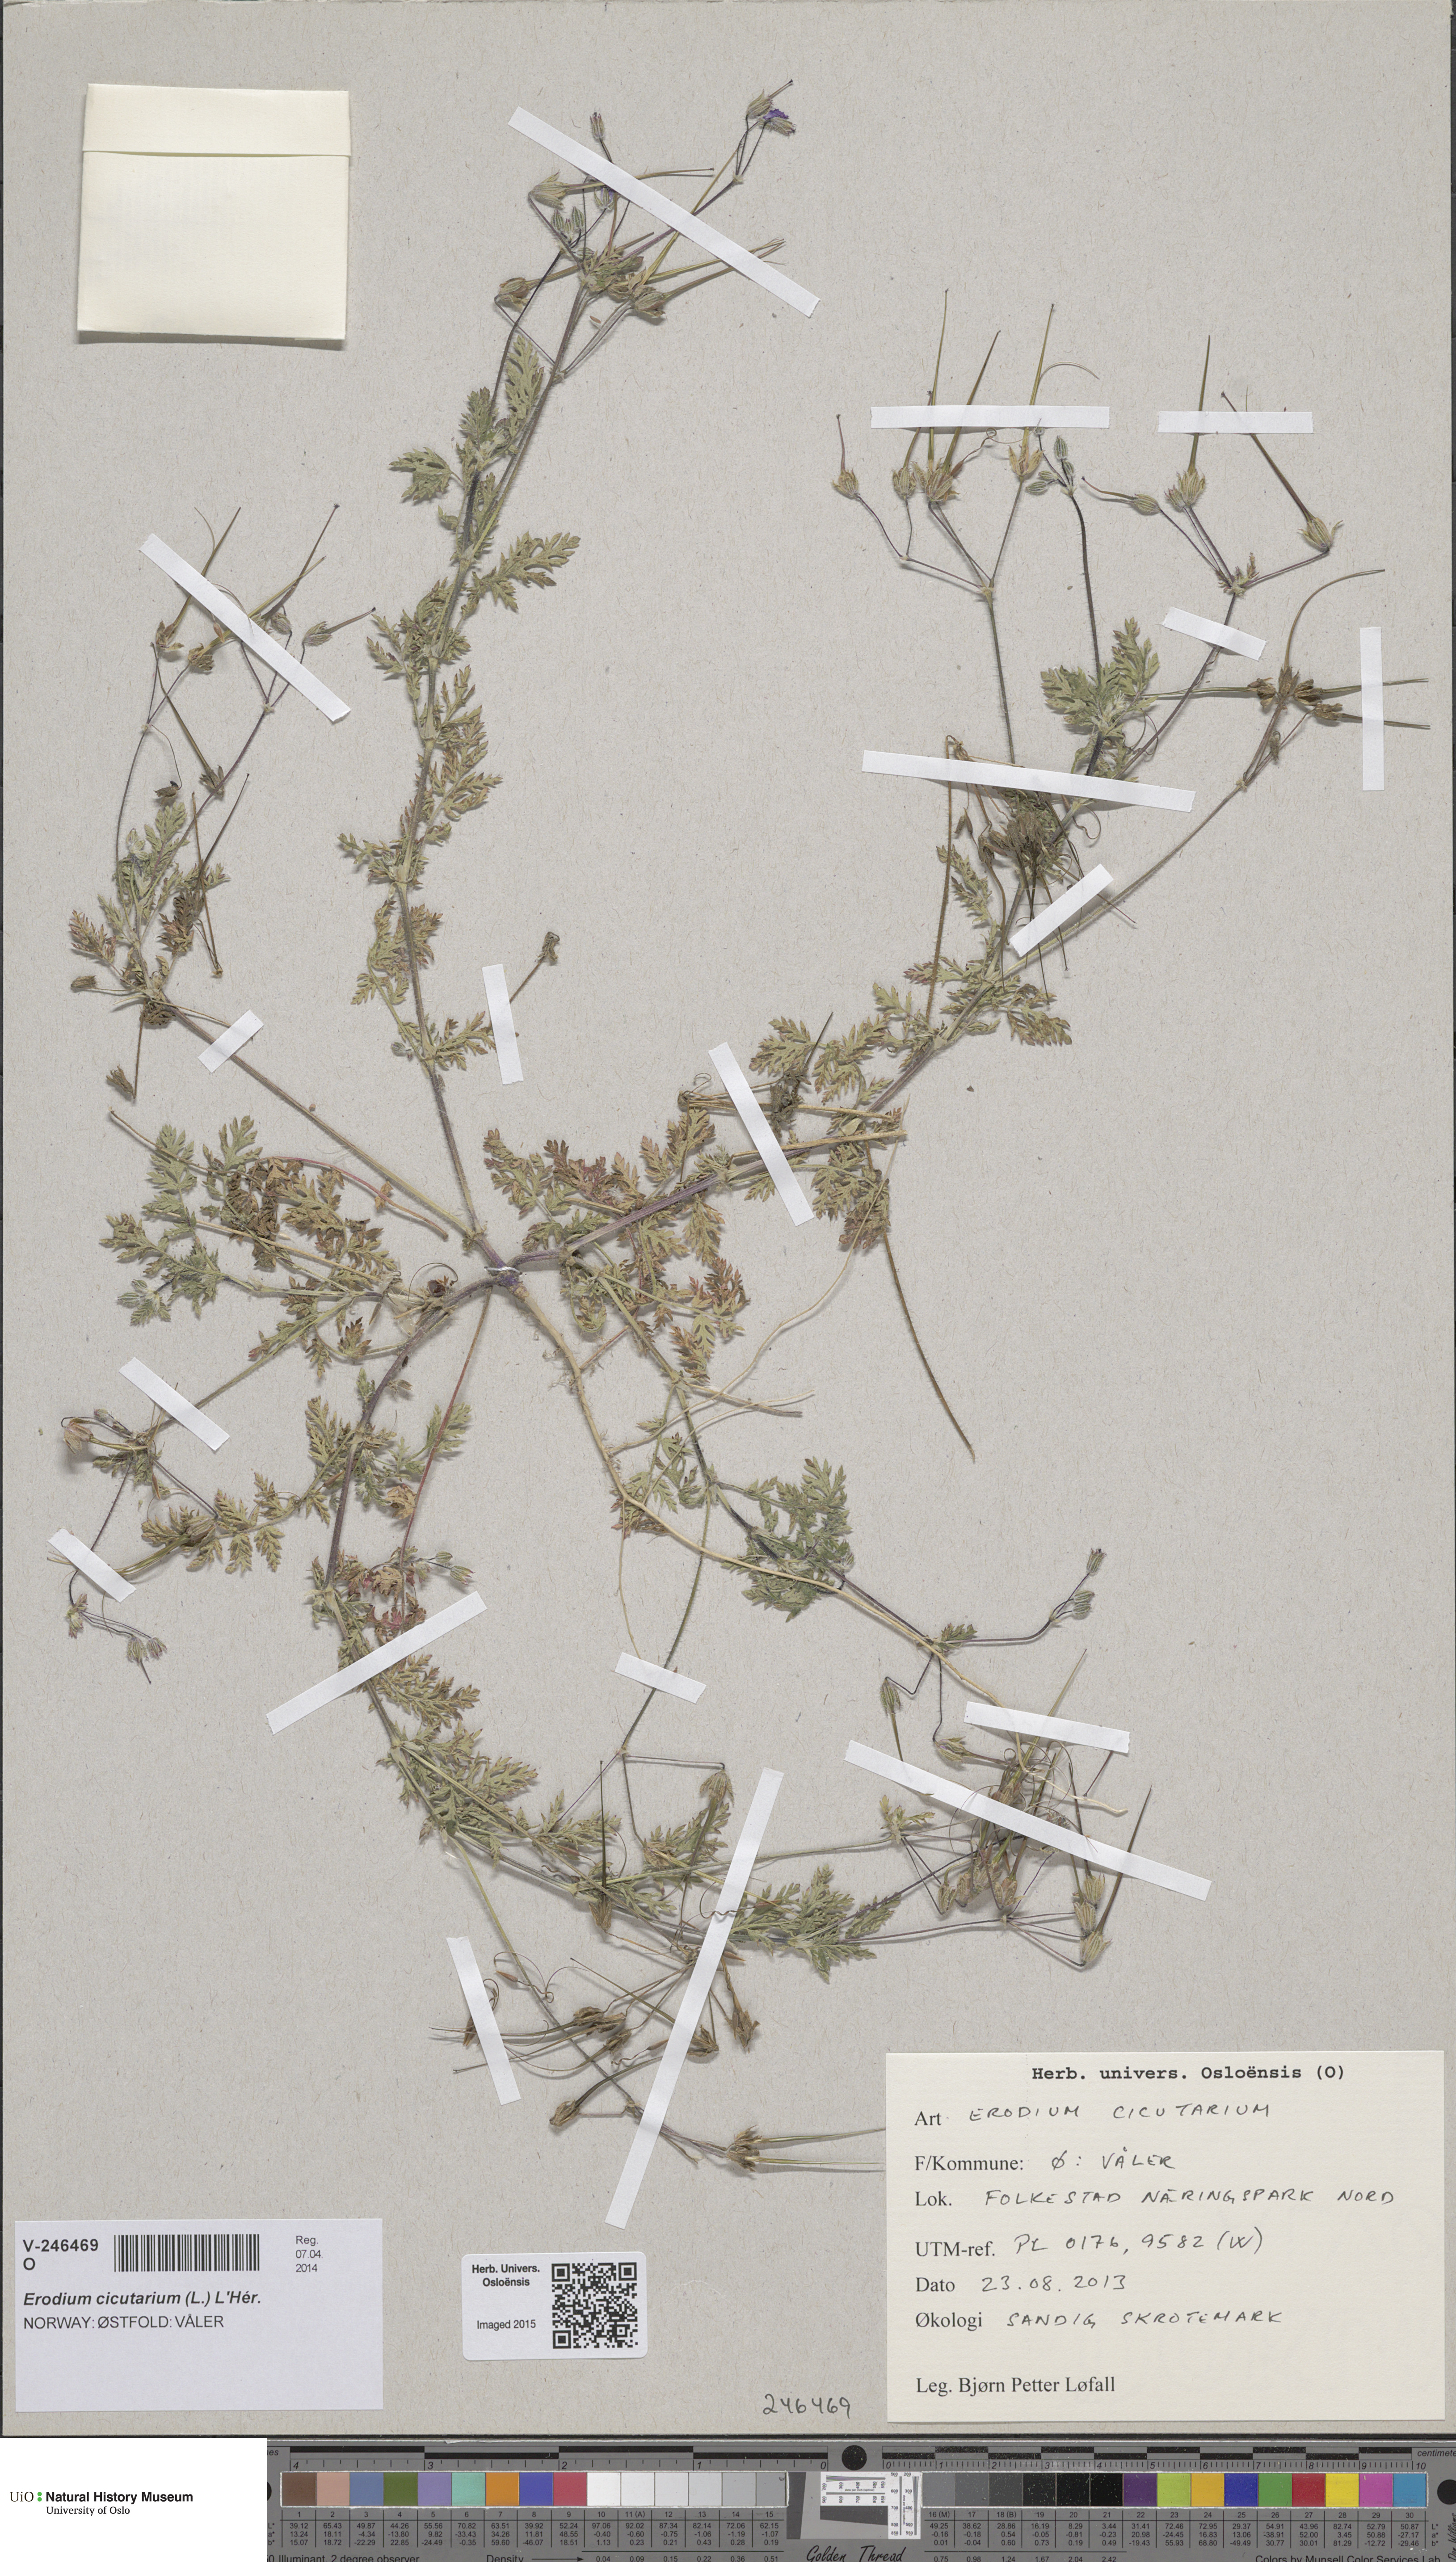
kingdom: Plantae
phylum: Tracheophyta
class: Magnoliopsida
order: Geraniales
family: Geraniaceae
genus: Erodium
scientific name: Erodium cicutarium
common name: Common stork's-bill
